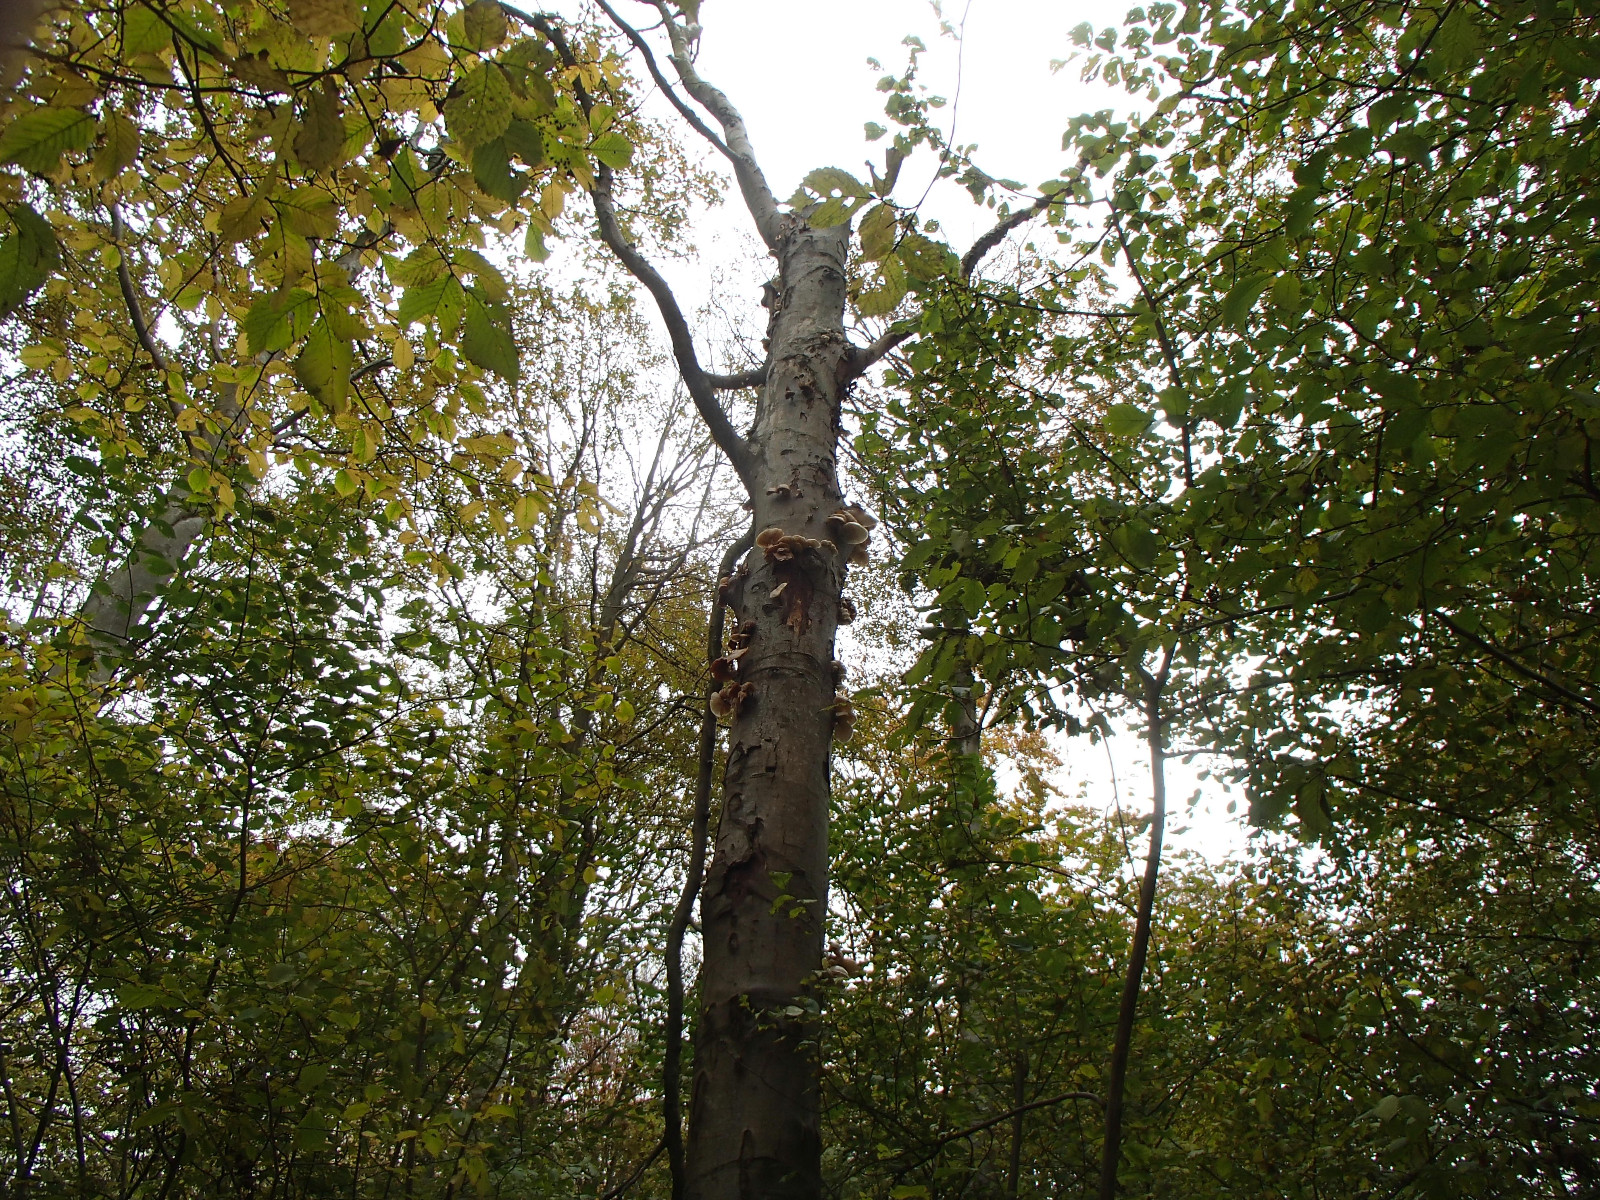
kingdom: Fungi
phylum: Basidiomycota
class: Agaricomycetes
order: Agaricales
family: Physalacriaceae
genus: Mucidula
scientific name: Mucidula mucida
